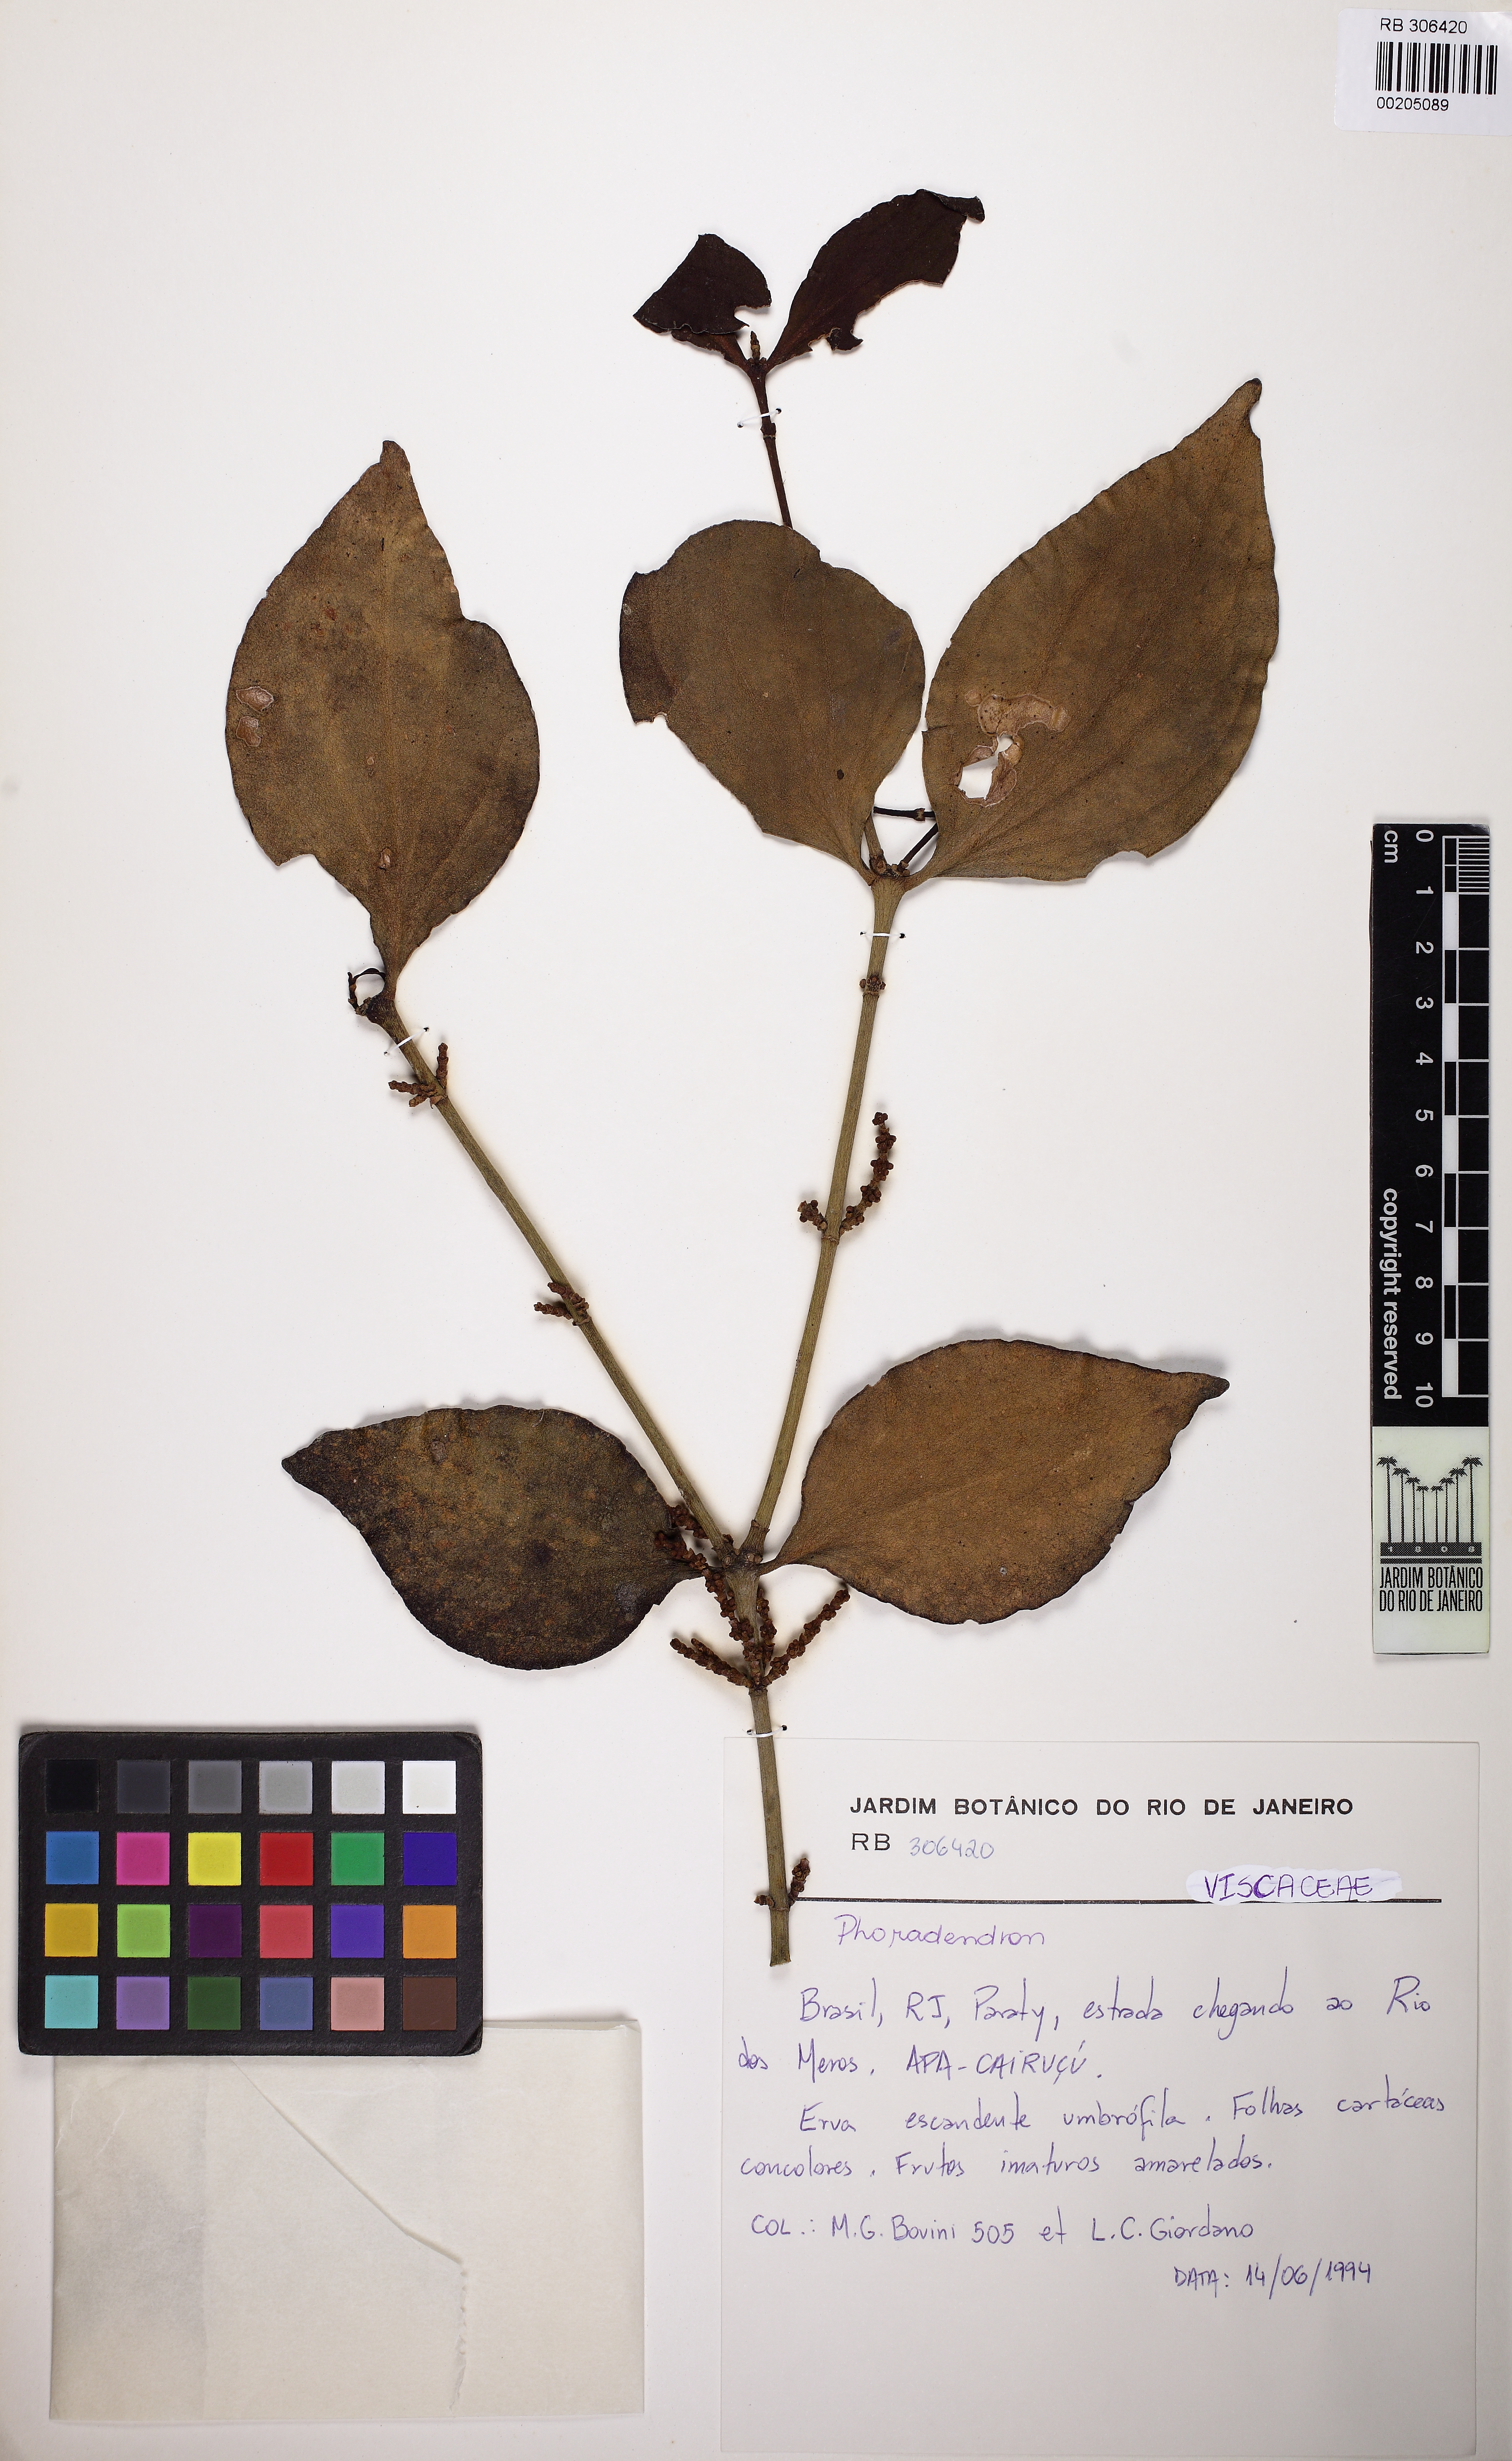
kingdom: Plantae
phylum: Tracheophyta
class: Magnoliopsida
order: Santalales
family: Viscaceae
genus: Phoradendron
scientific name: Phoradendron crassifolium
